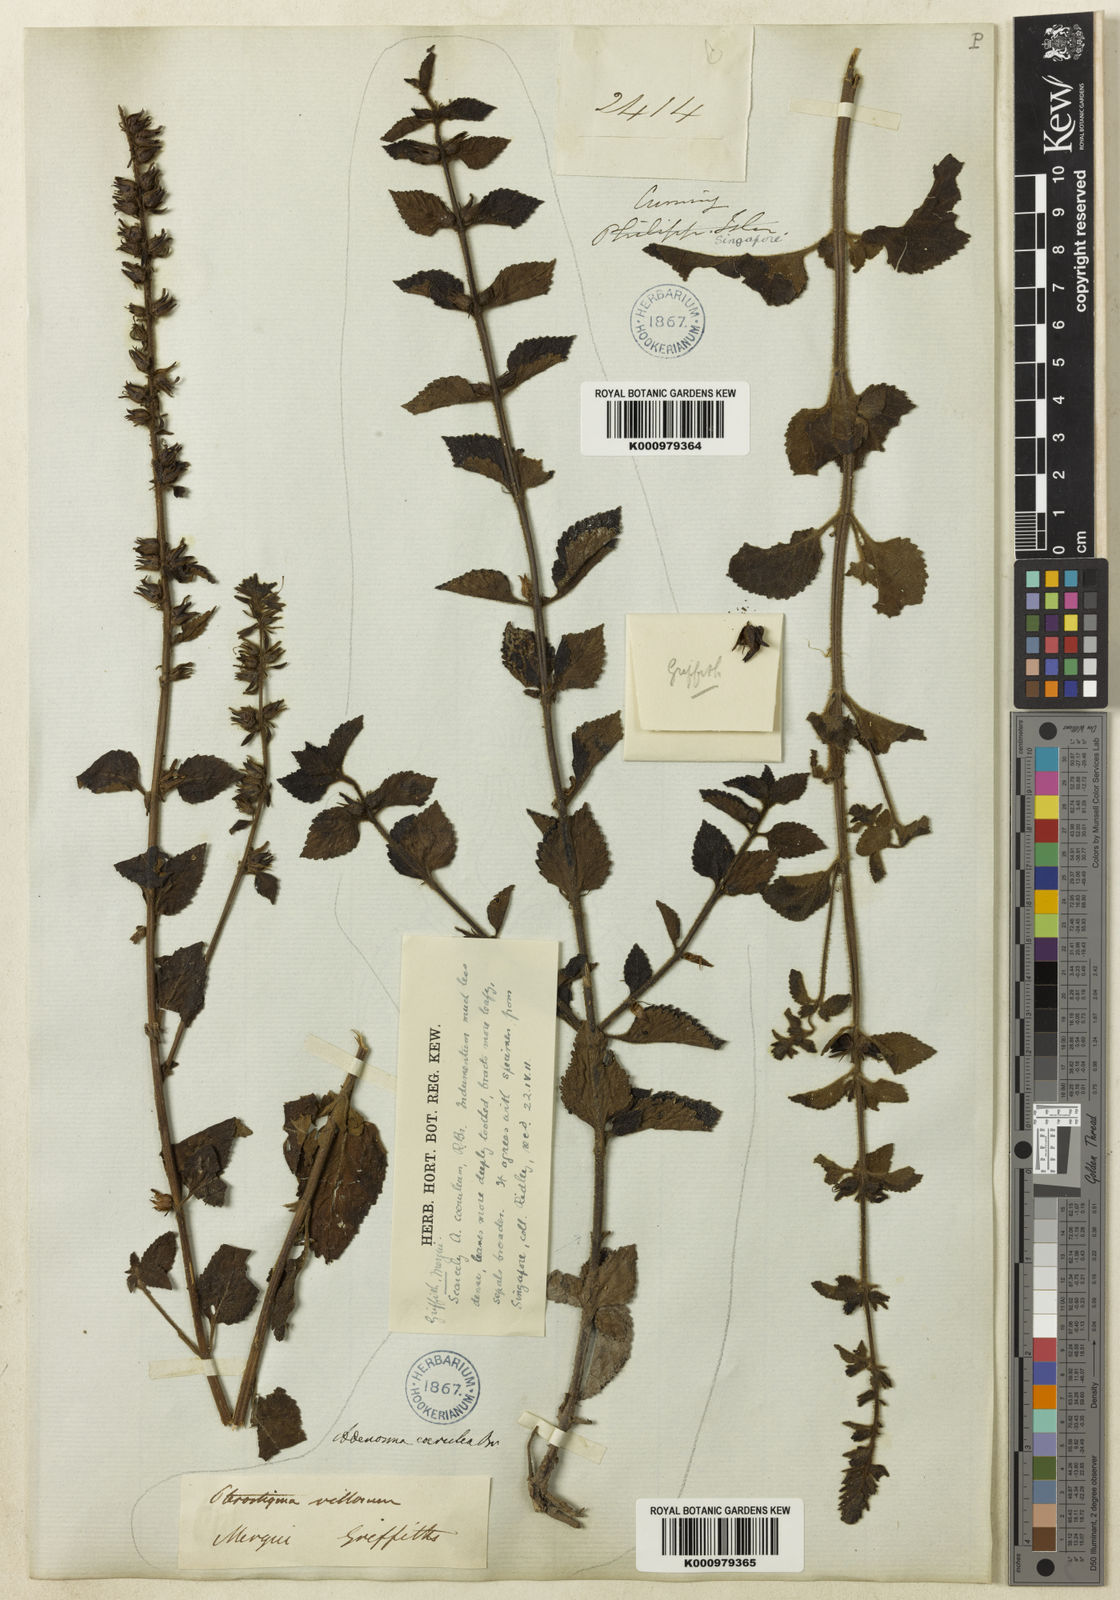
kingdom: Plantae
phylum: Tracheophyta
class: Magnoliopsida
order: Lamiales
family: Plantaginaceae
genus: Adenosma
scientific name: Adenosma inopinata
